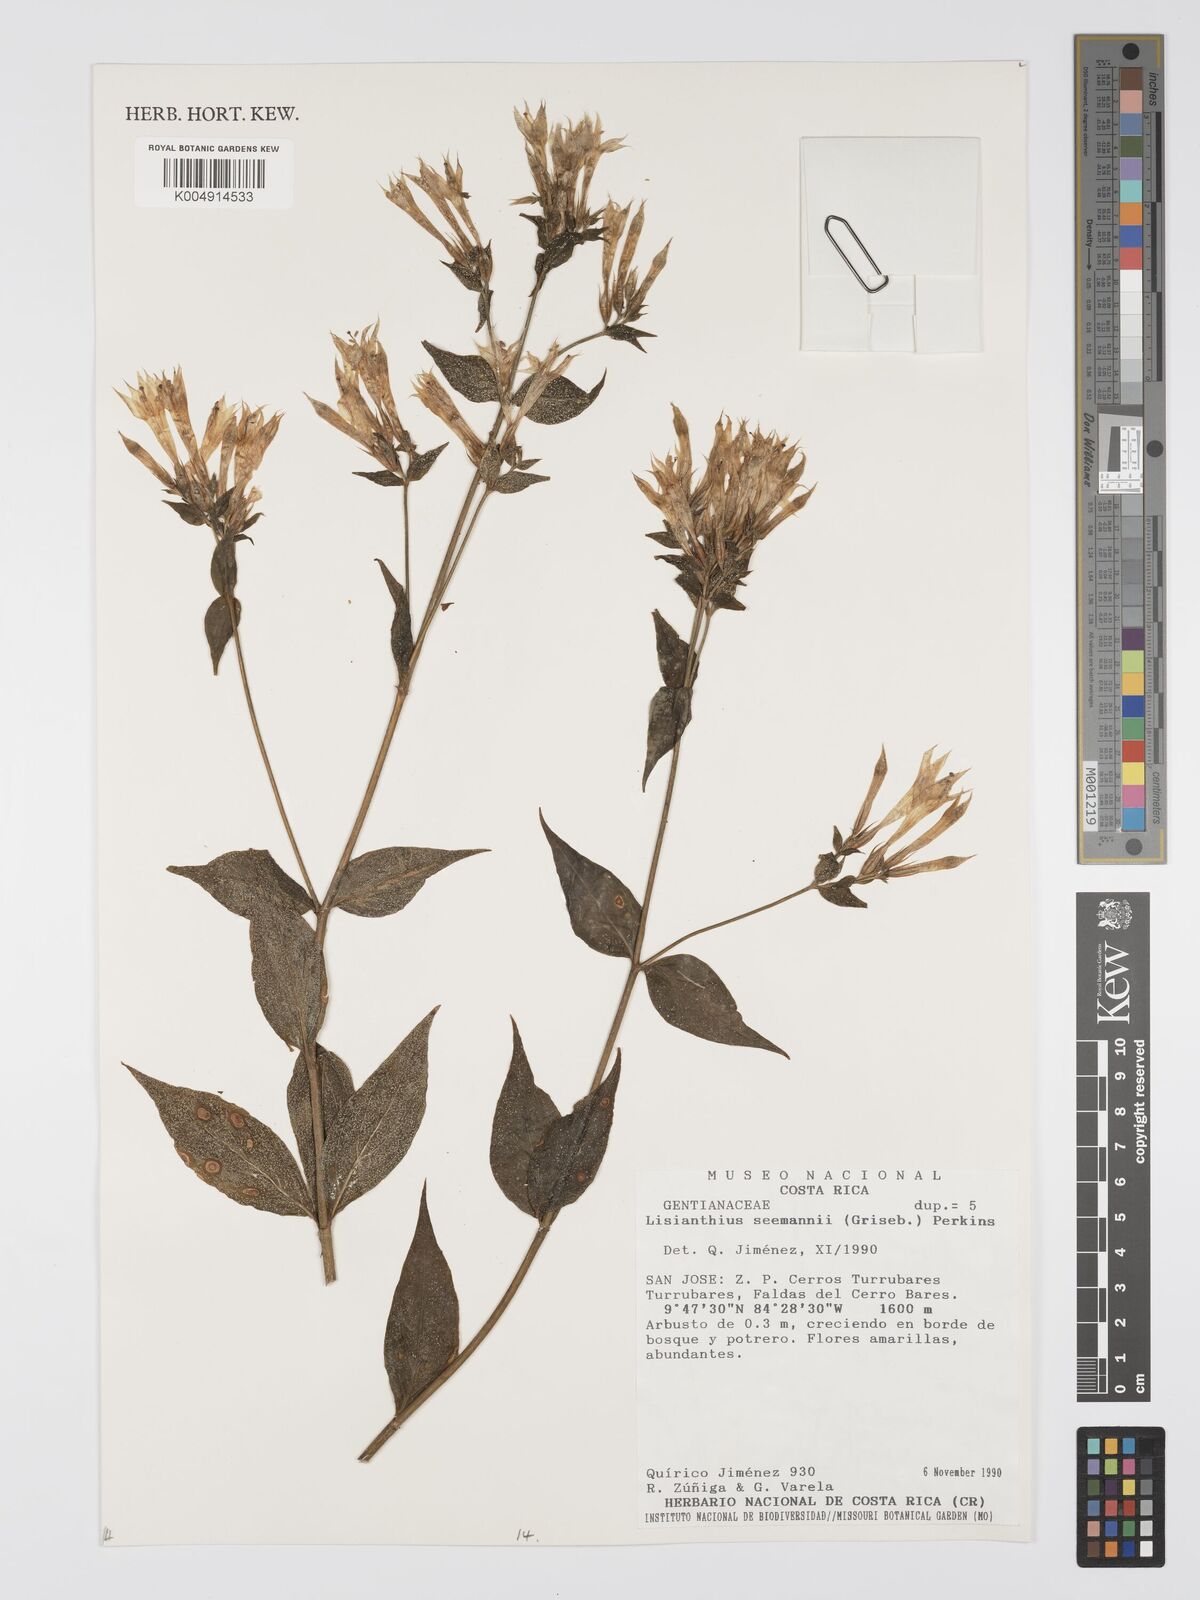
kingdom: Plantae
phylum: Tracheophyta
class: Magnoliopsida
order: Gentianales
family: Gentianaceae
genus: Lisianthus
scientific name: Lisianthus seemannii
